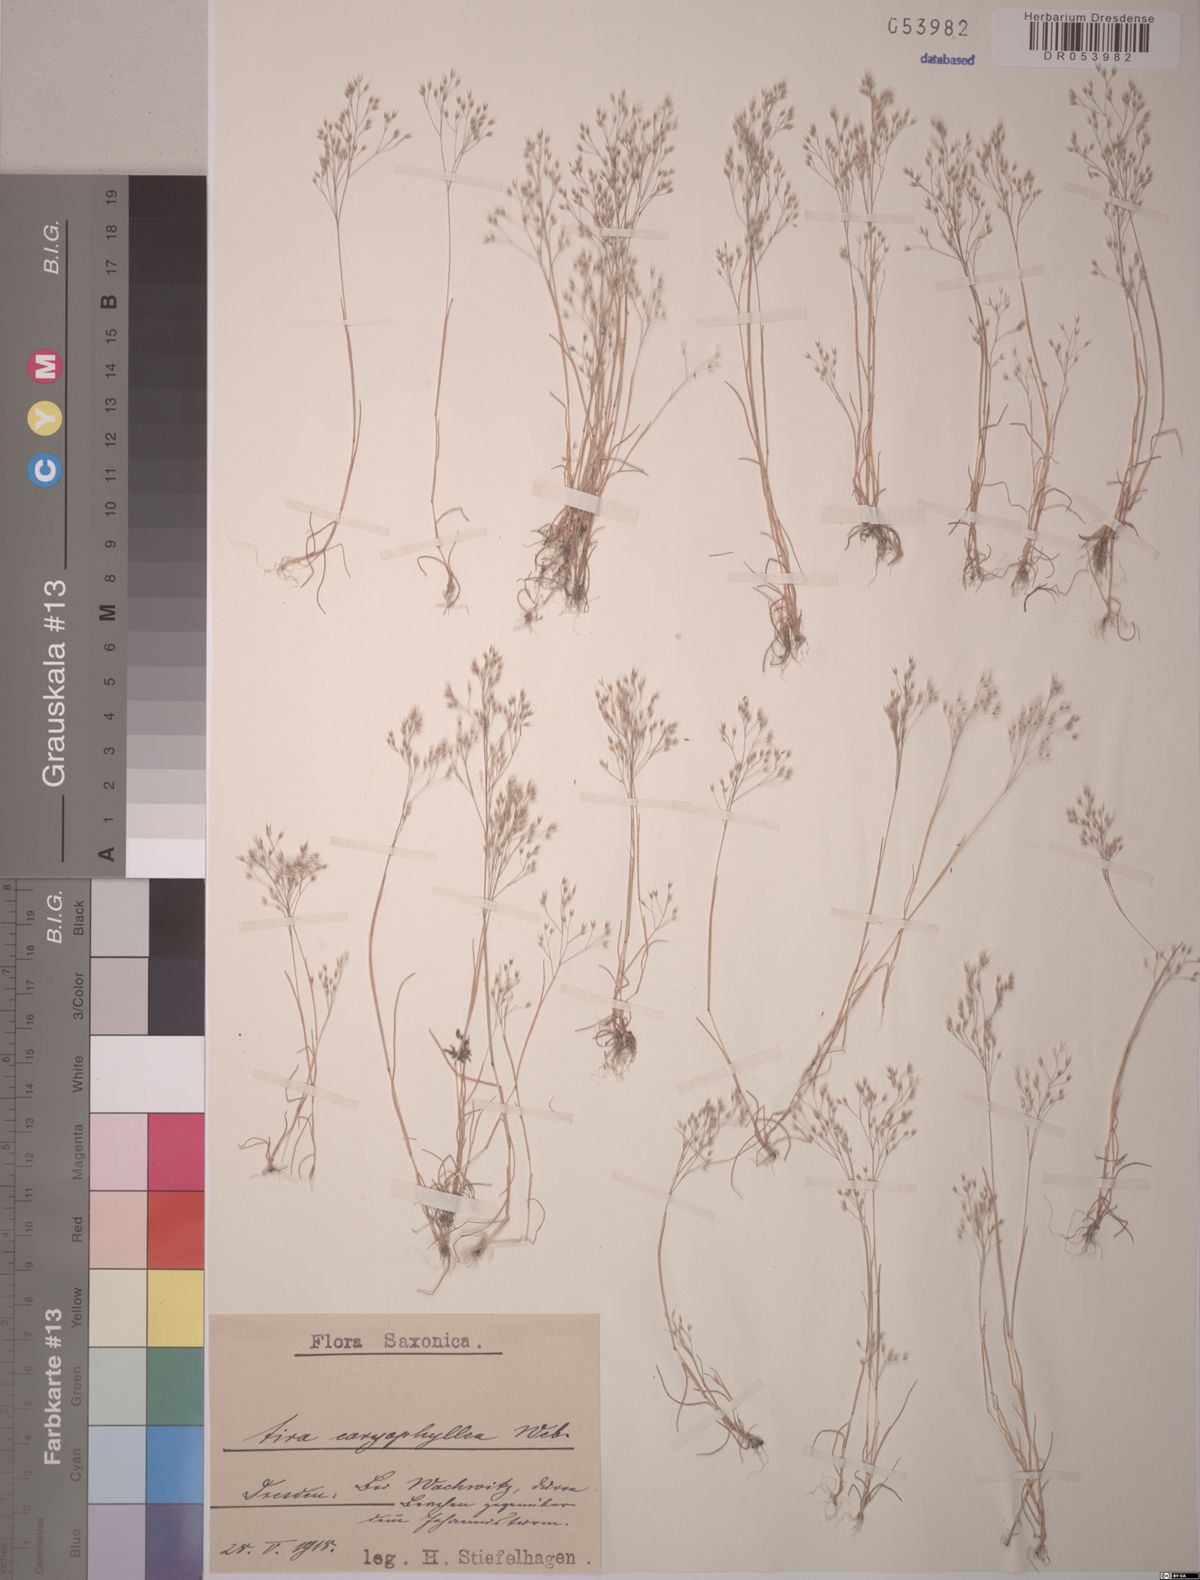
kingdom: Plantae
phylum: Tracheophyta
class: Liliopsida
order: Poales
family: Poaceae
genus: Aira
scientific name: Aira caryophyllea
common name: Silver hairgrass
